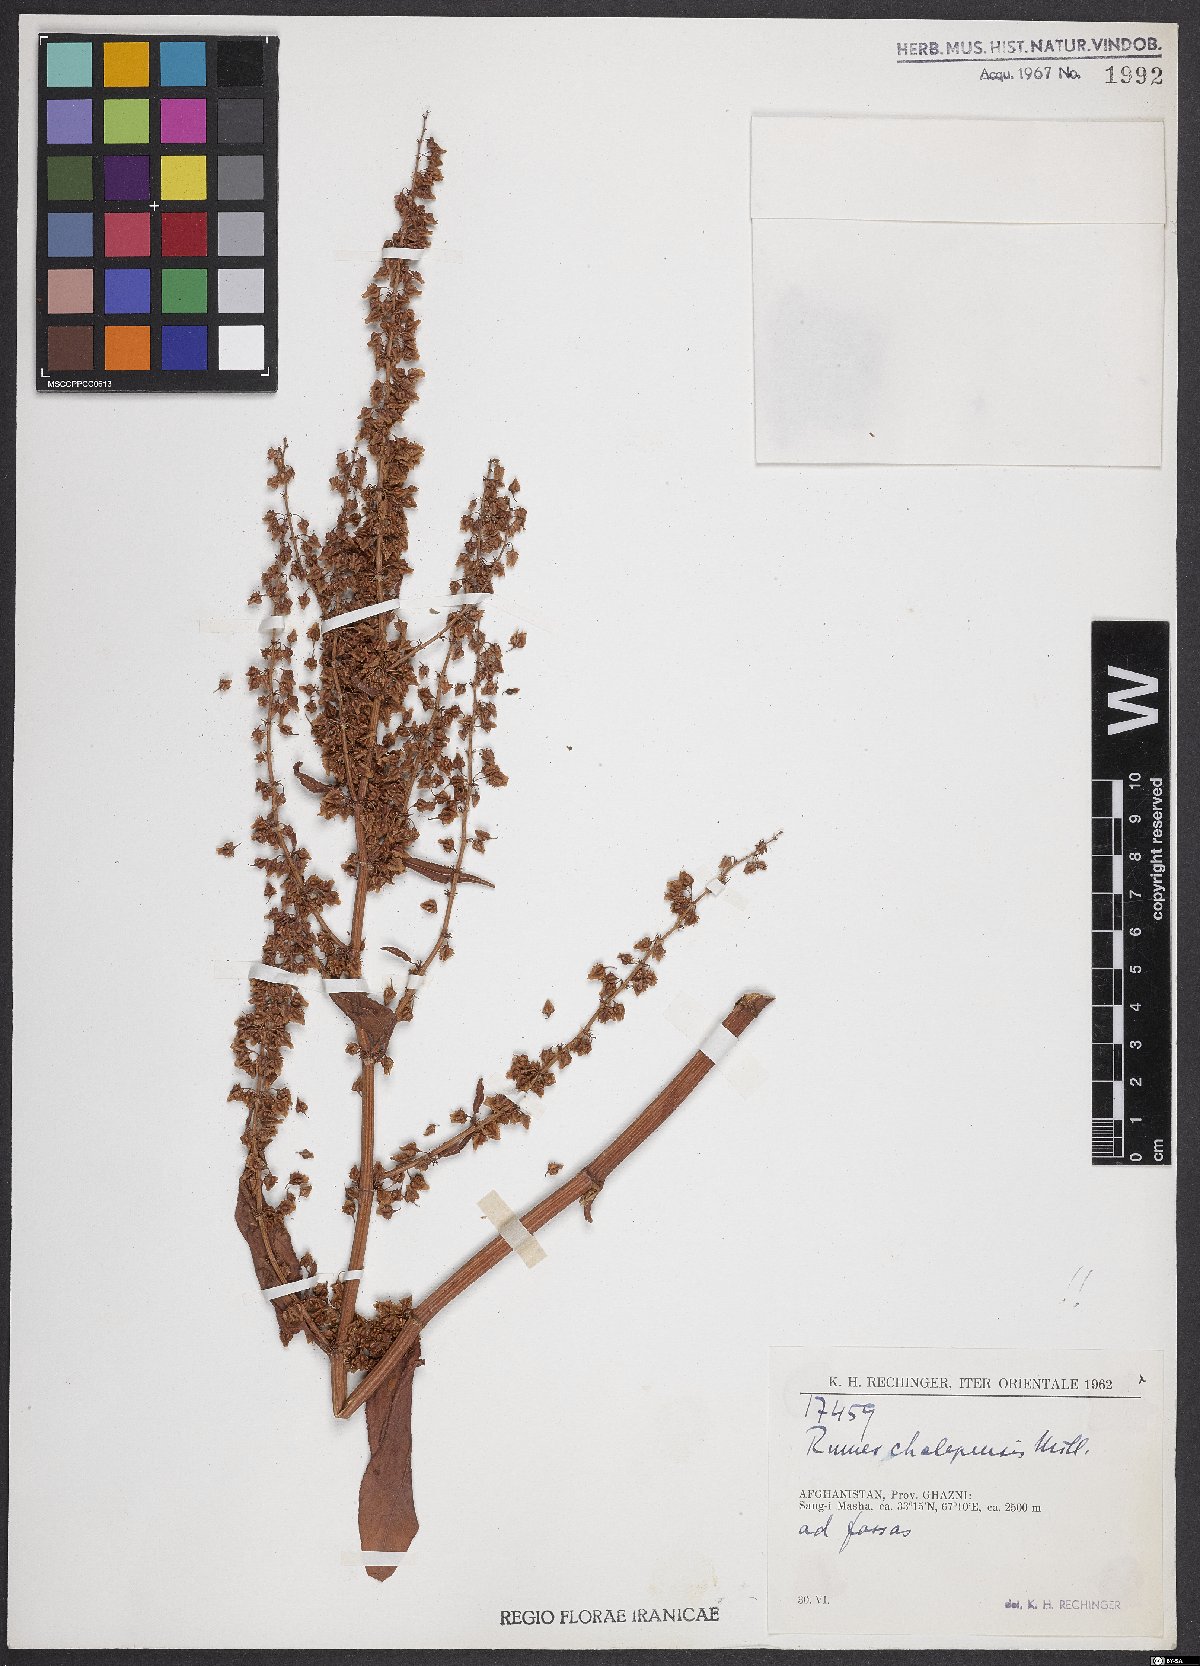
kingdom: Plantae
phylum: Tracheophyta
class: Magnoliopsida
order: Caryophyllales
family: Polygonaceae
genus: Rumex
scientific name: Rumex chalepensis
